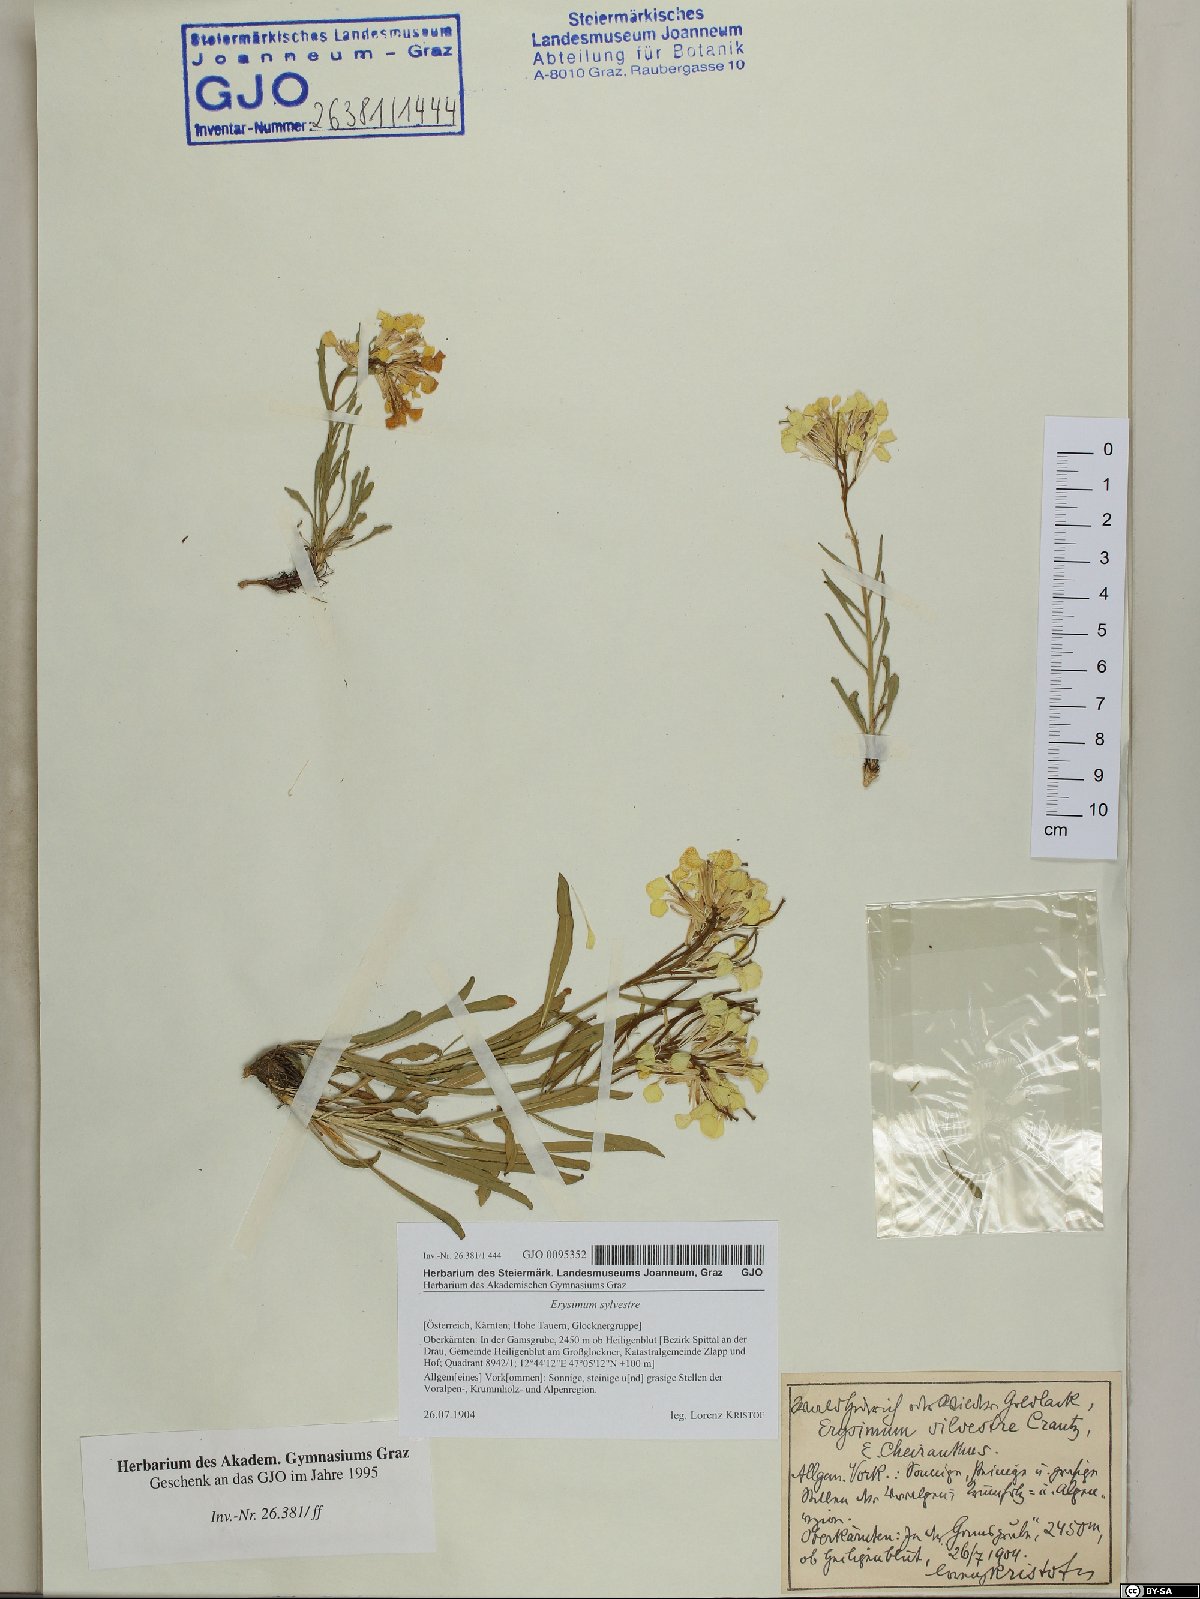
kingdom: Plantae
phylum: Tracheophyta
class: Magnoliopsida
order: Brassicales
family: Brassicaceae
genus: Erysimum
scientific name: Erysimum sylvestre
